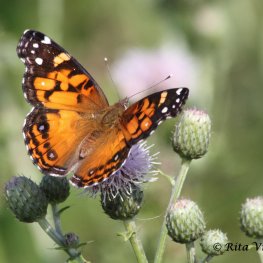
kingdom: Animalia
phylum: Arthropoda
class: Insecta
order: Lepidoptera
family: Nymphalidae
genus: Vanessa
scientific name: Vanessa virginiensis
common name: American Lady
